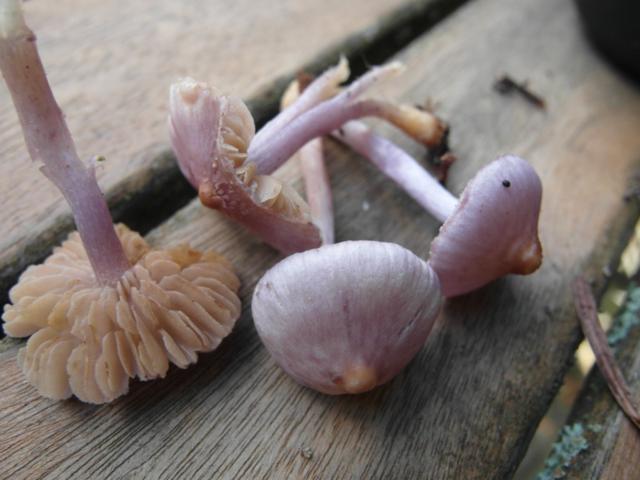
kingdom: Fungi
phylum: Basidiomycota
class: Agaricomycetes
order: Agaricales
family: Inocybaceae
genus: Inocybe
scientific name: Inocybe geophylla
